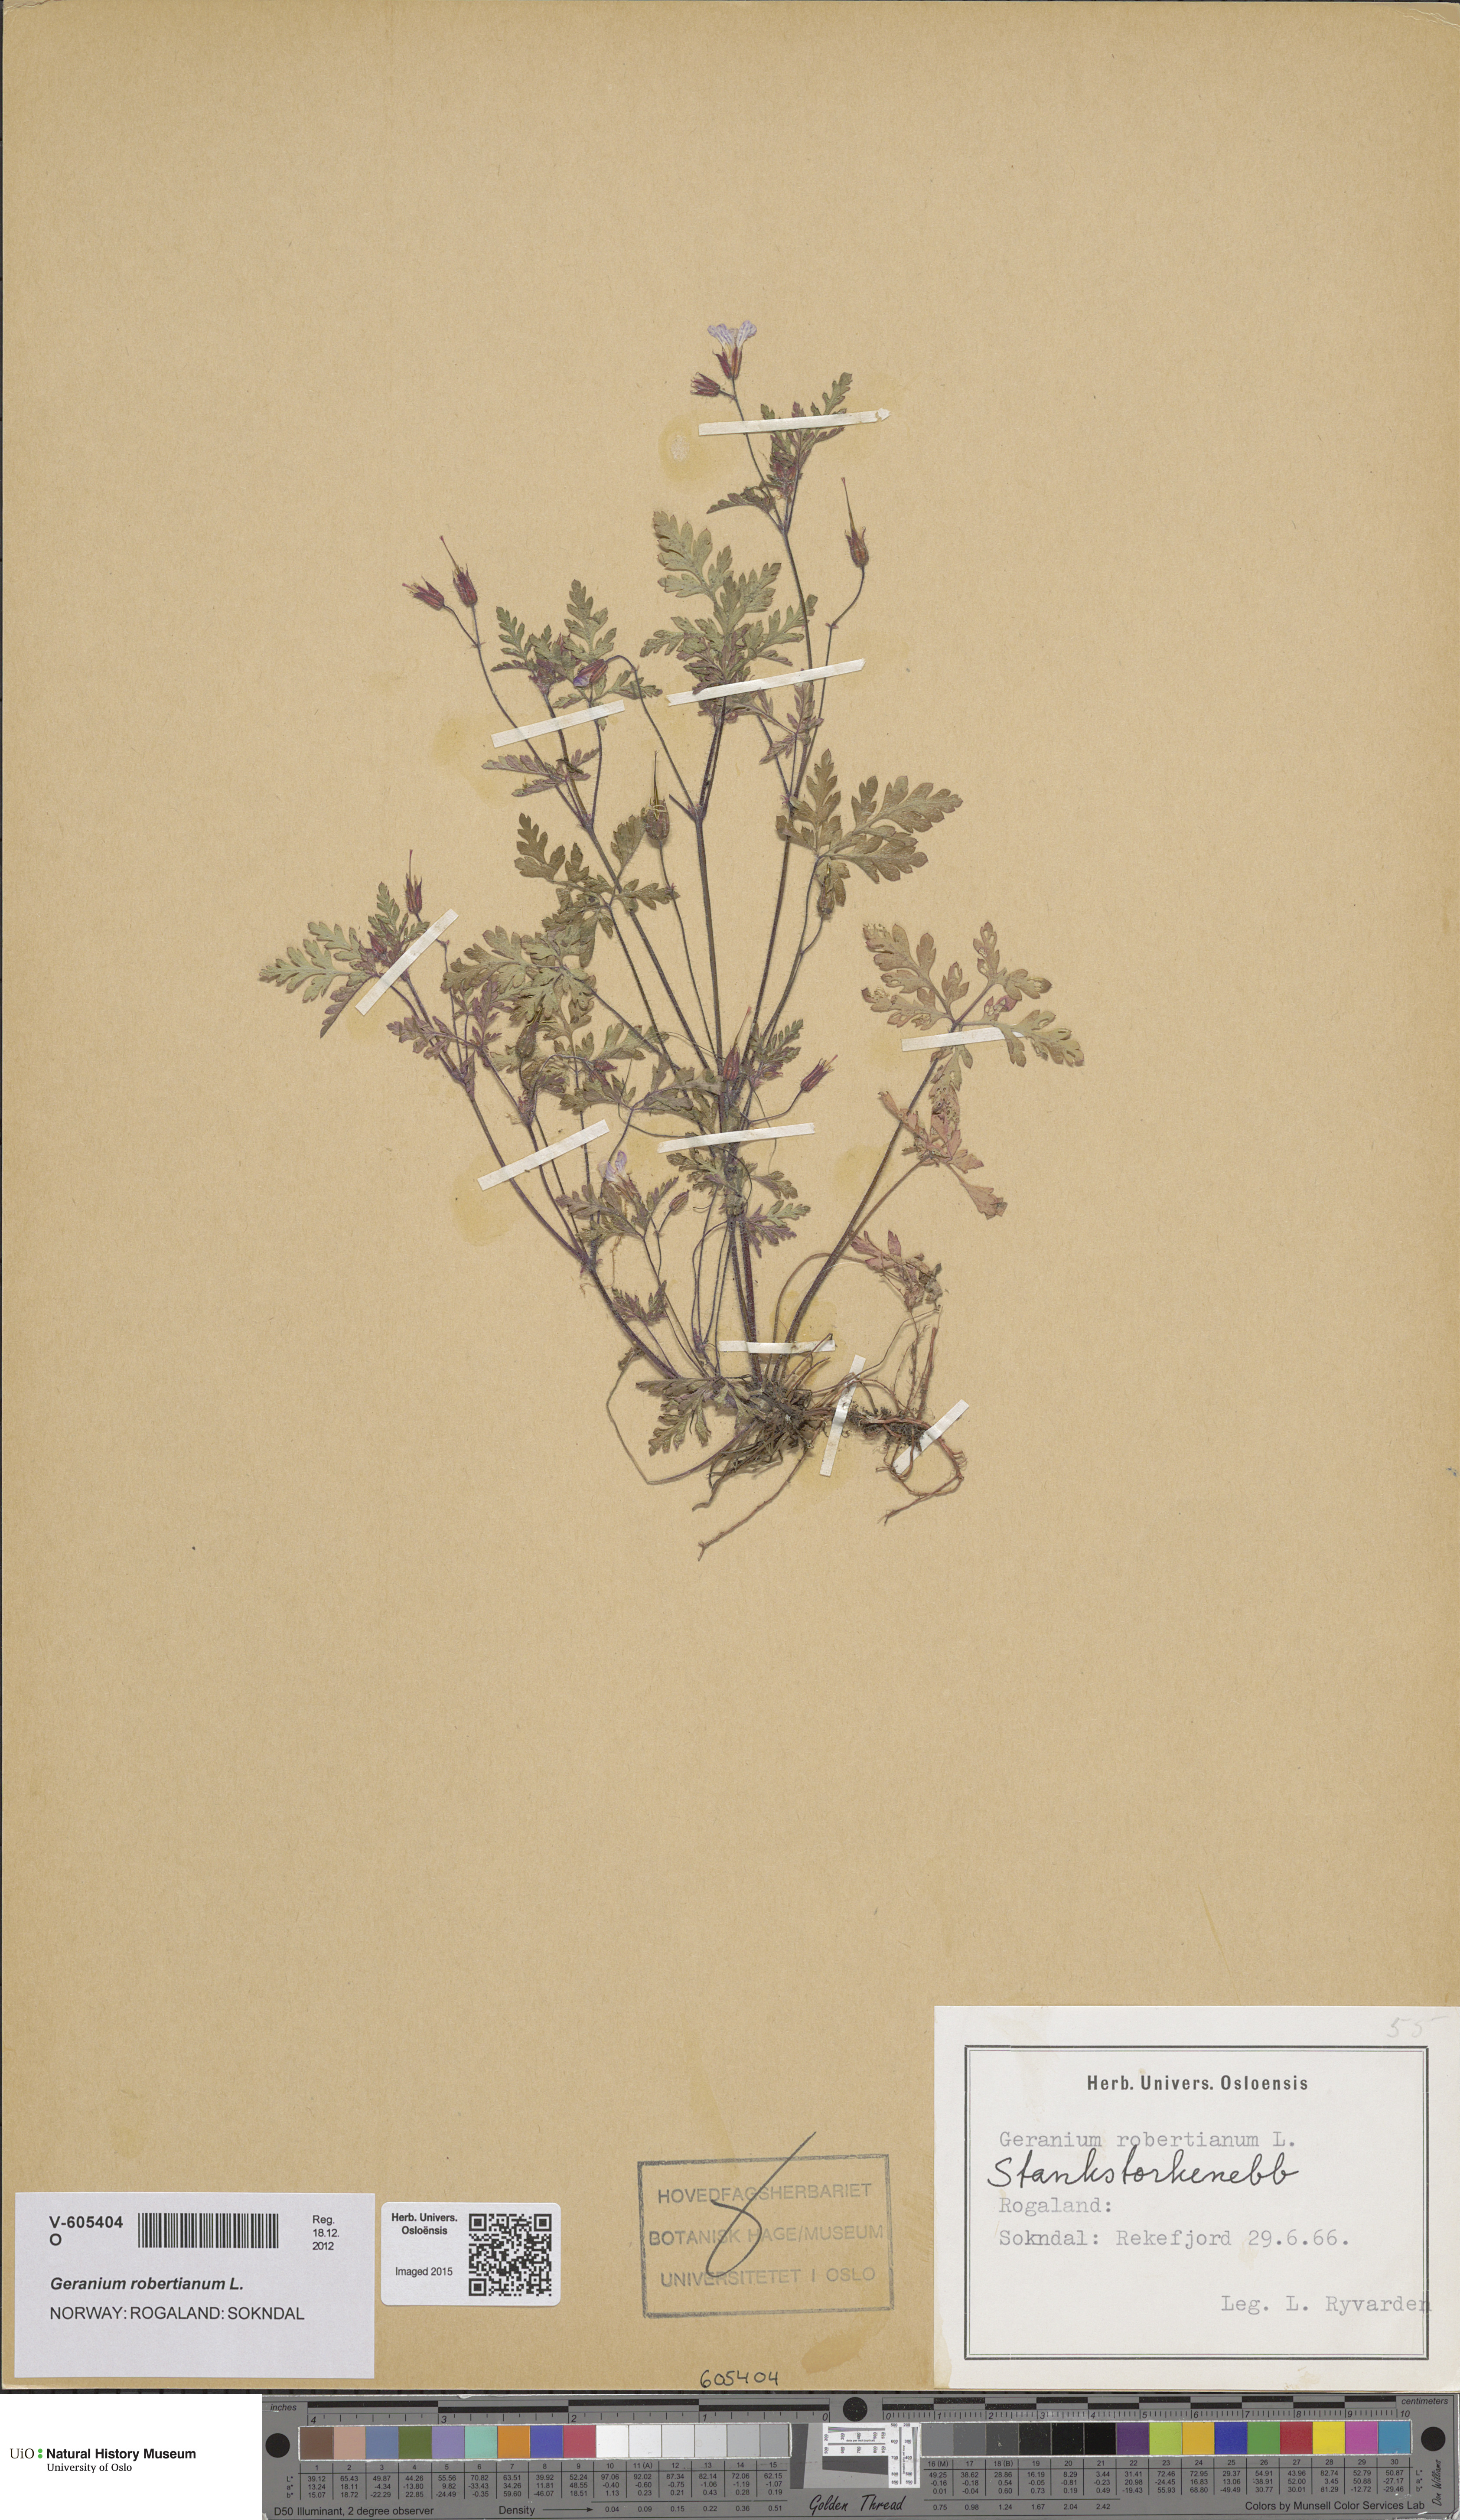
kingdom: Plantae
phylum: Tracheophyta
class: Magnoliopsida
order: Geraniales
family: Geraniaceae
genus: Geranium
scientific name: Geranium robertianum
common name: Herb-robert
